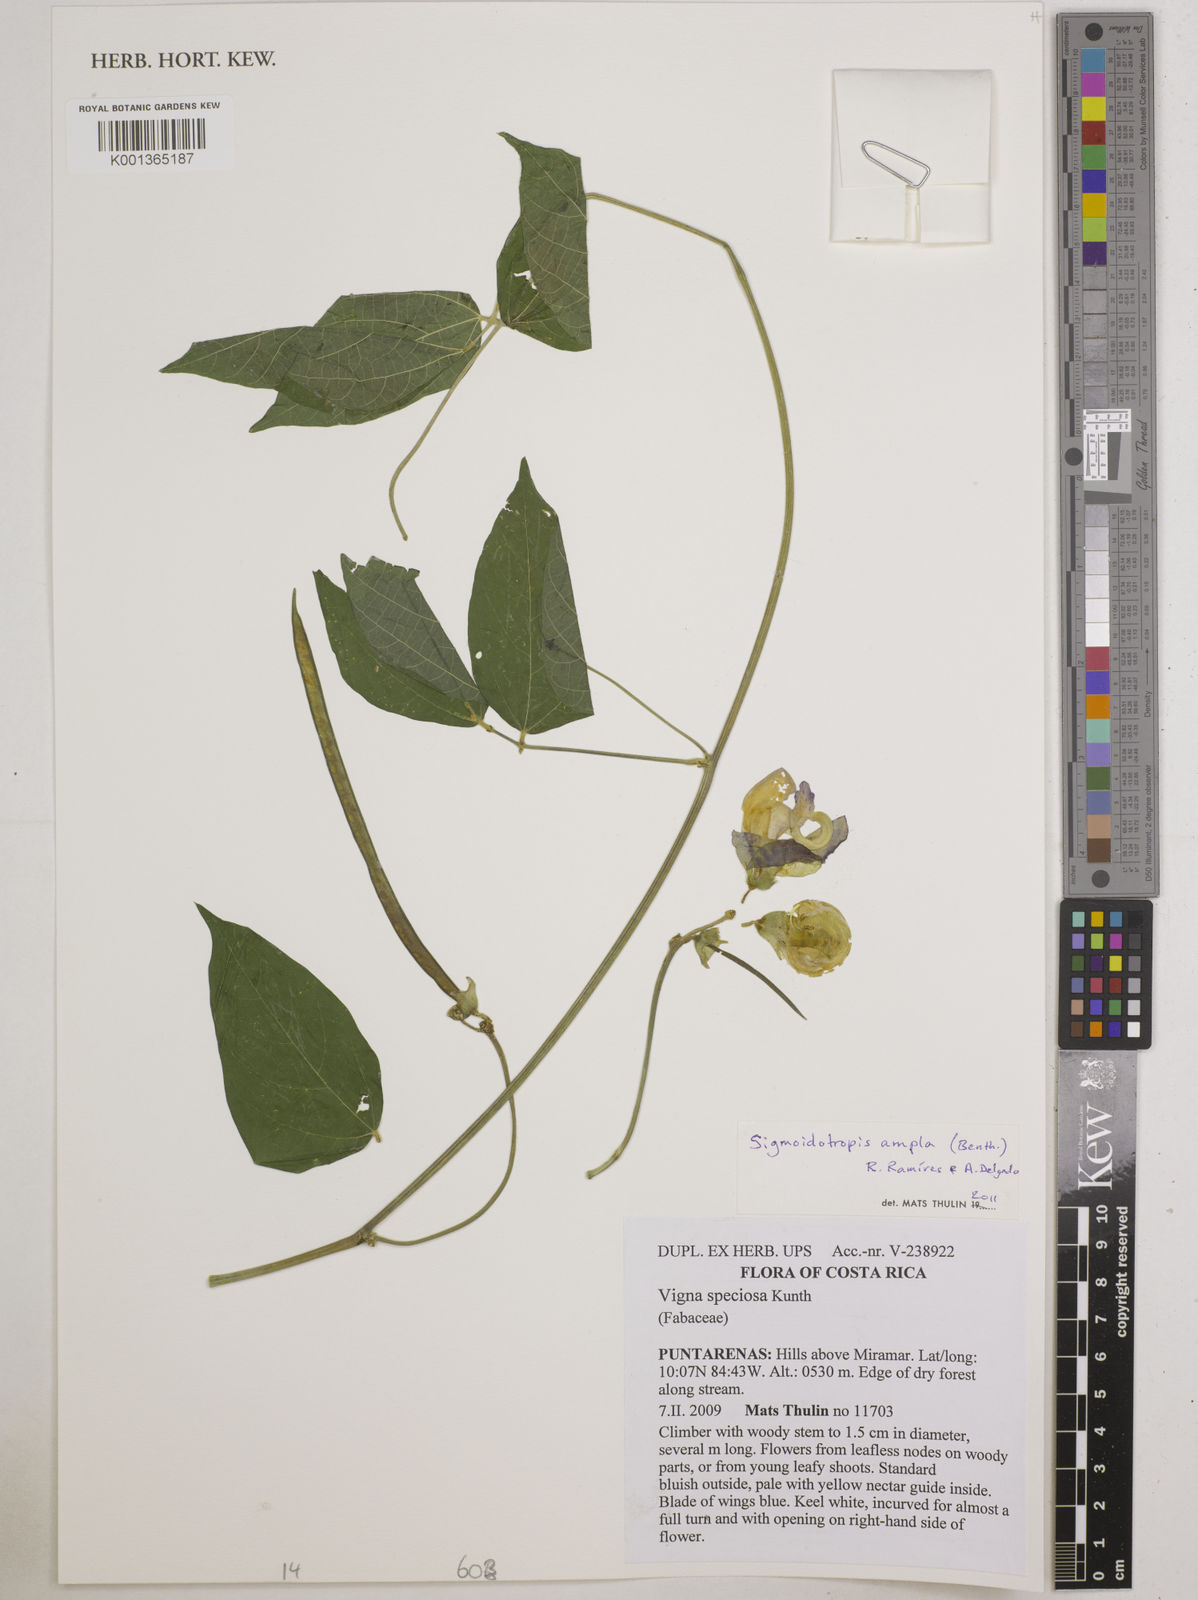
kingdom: Plantae
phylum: Tracheophyta
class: Magnoliopsida
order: Fabales
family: Fabaceae
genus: Sigmoidotropis
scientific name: Sigmoidotropis ampla
